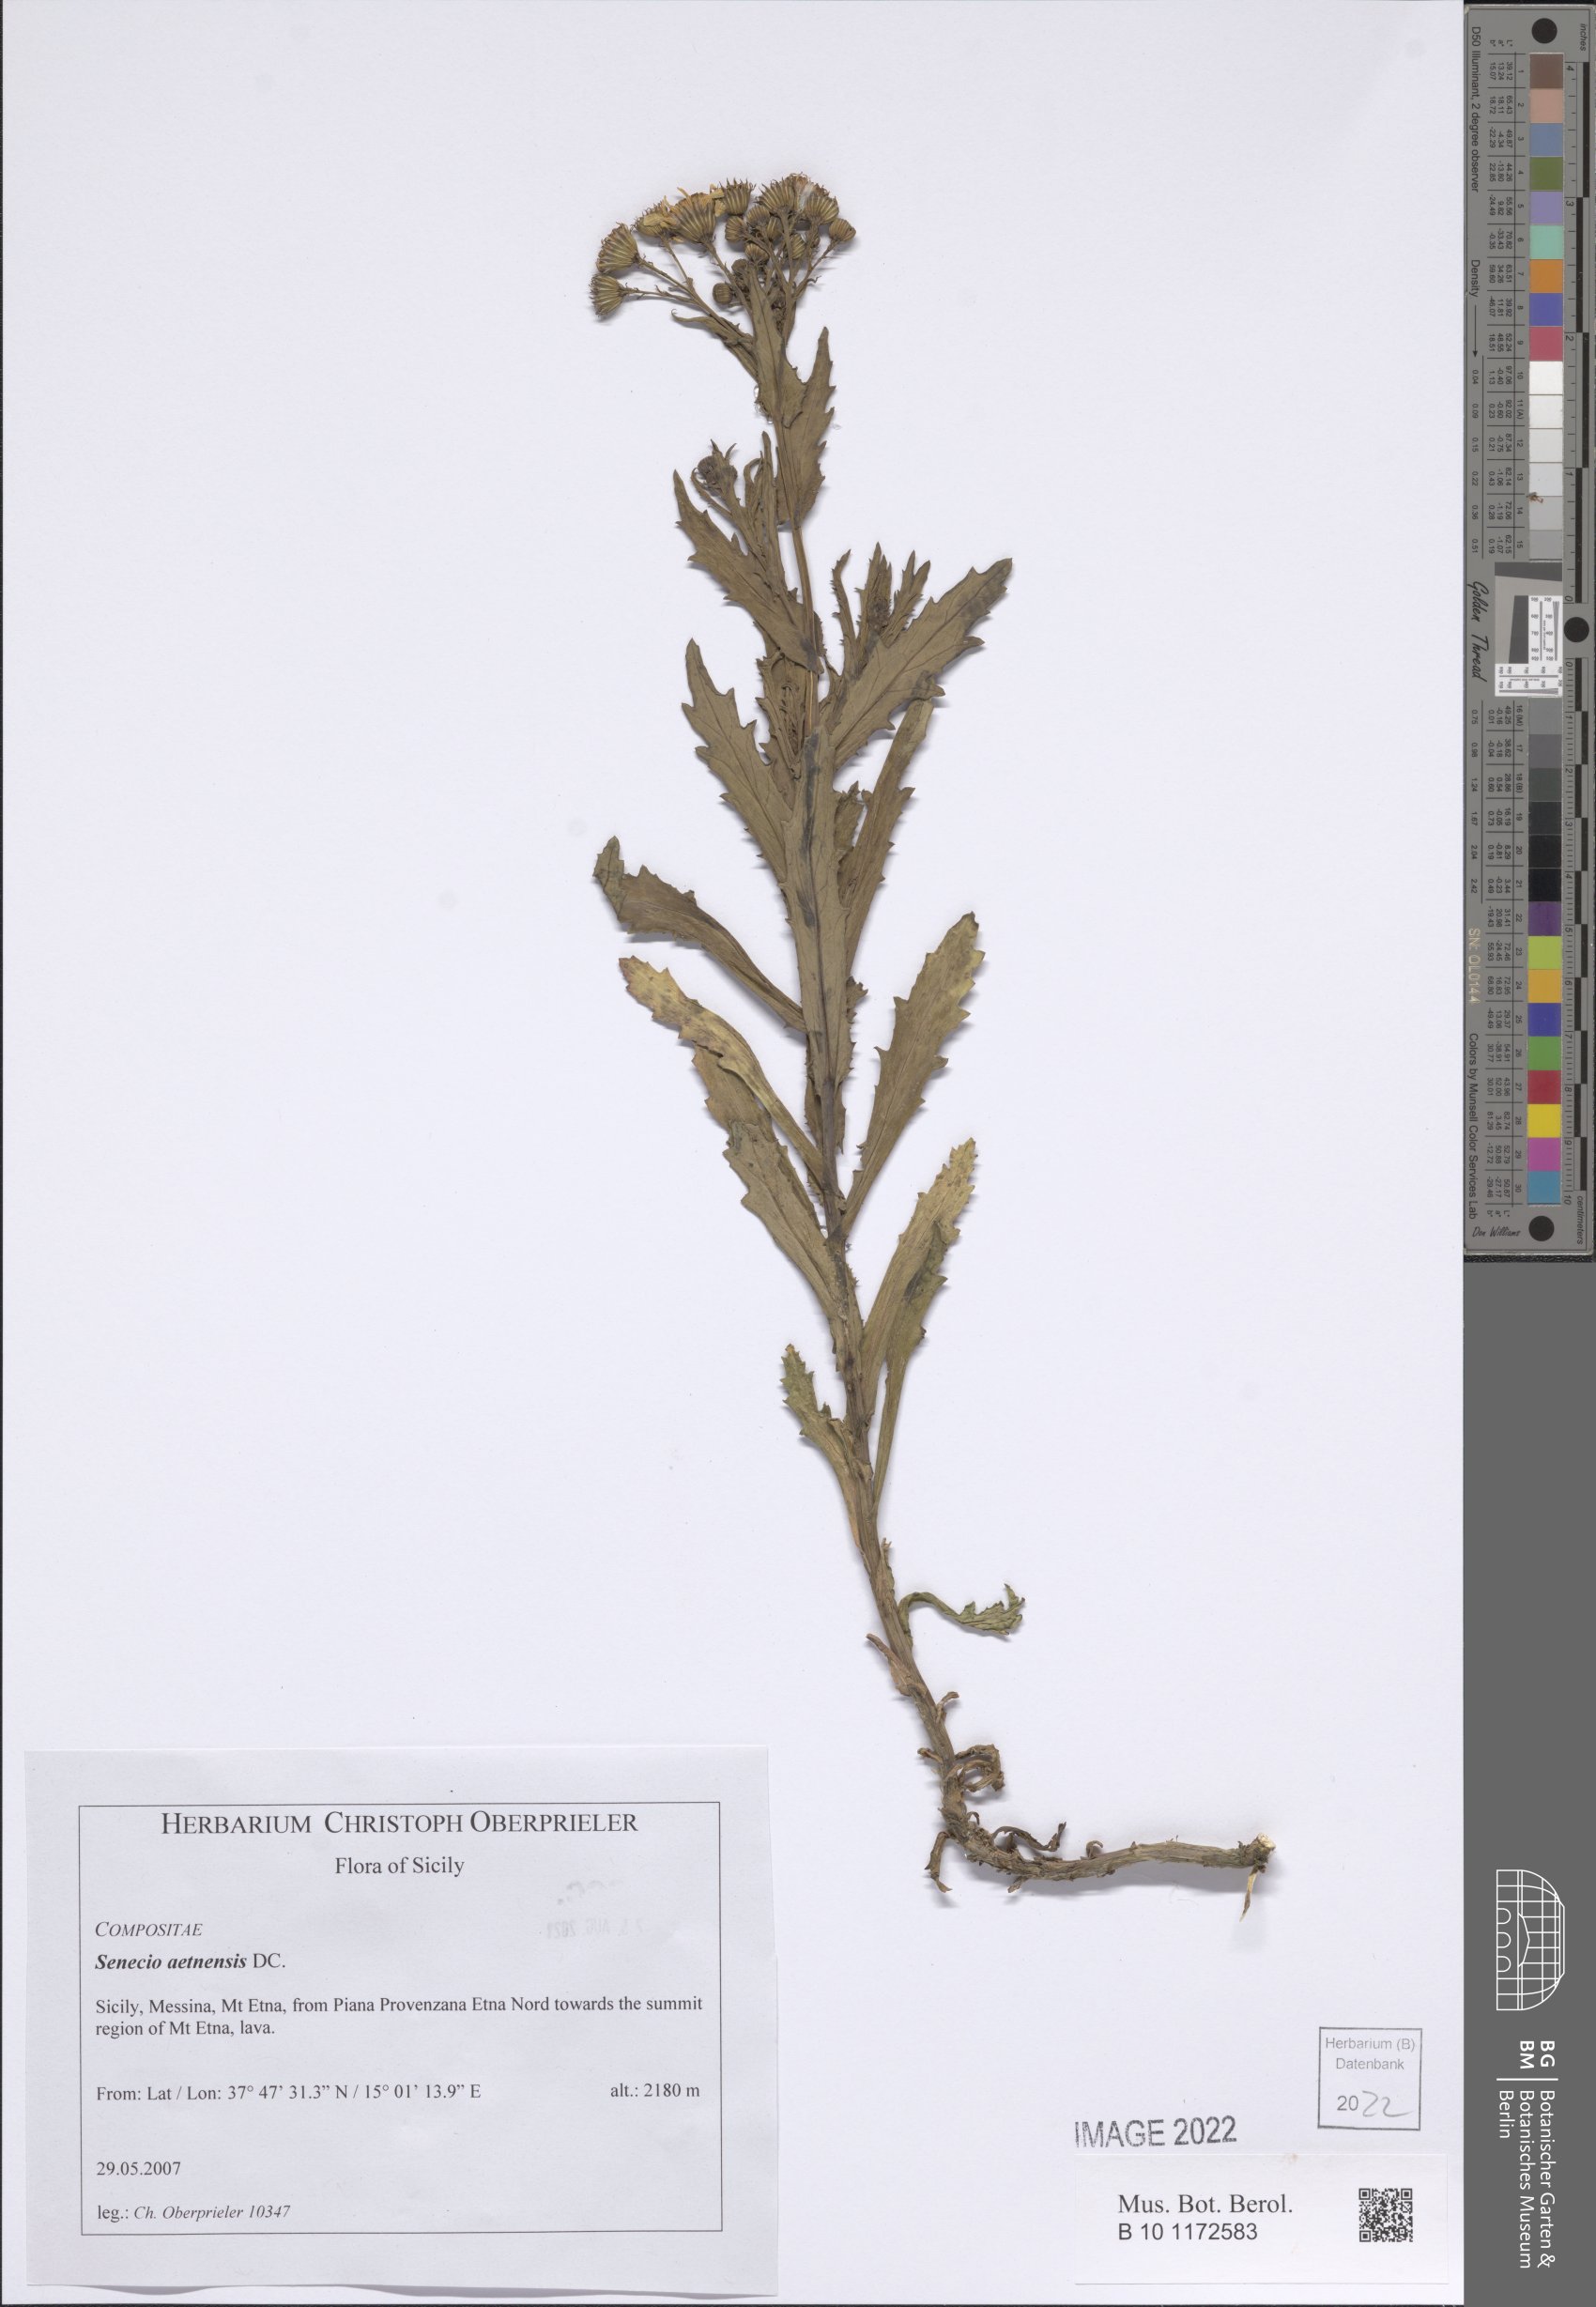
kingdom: Plantae
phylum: Tracheophyta
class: Magnoliopsida
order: Asterales
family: Asteraceae
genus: Senecio
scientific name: Senecio squalidus
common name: Oxford ragwort
